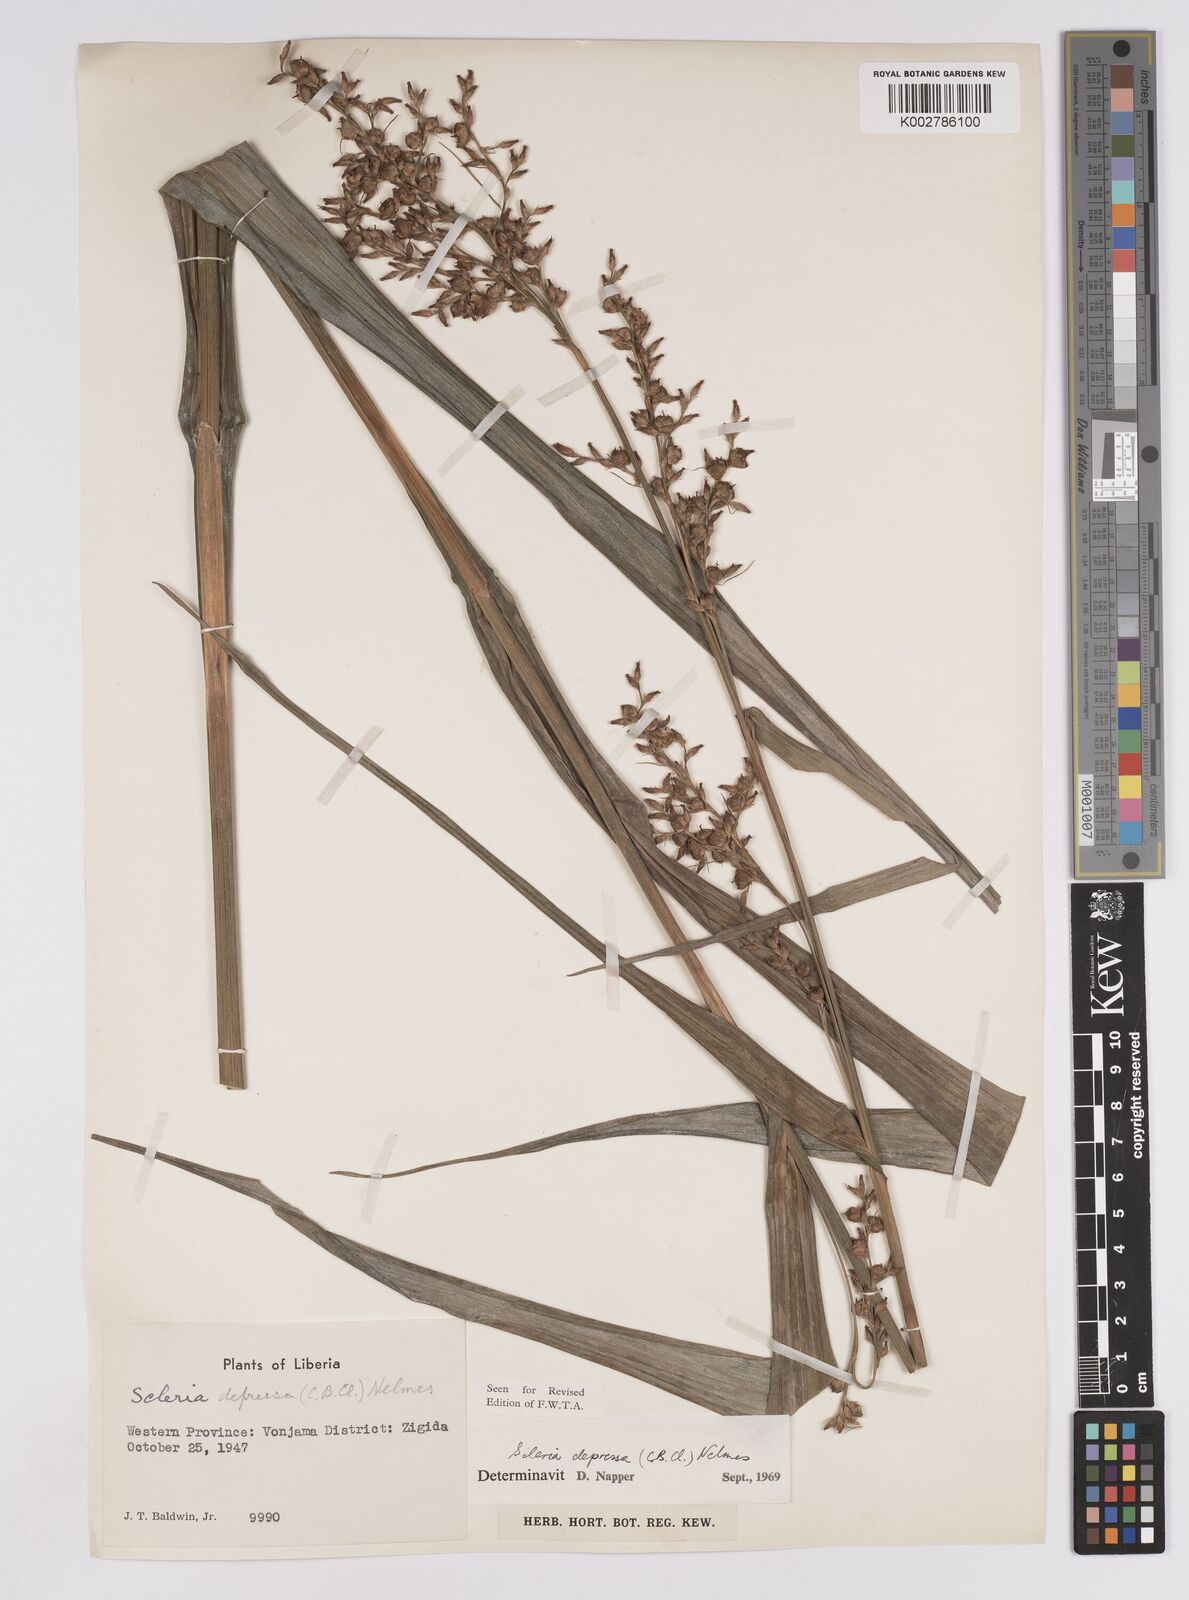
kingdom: Plantae
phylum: Tracheophyta
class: Liliopsida
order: Poales
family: Cyperaceae
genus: Scleria
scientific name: Scleria depressa
